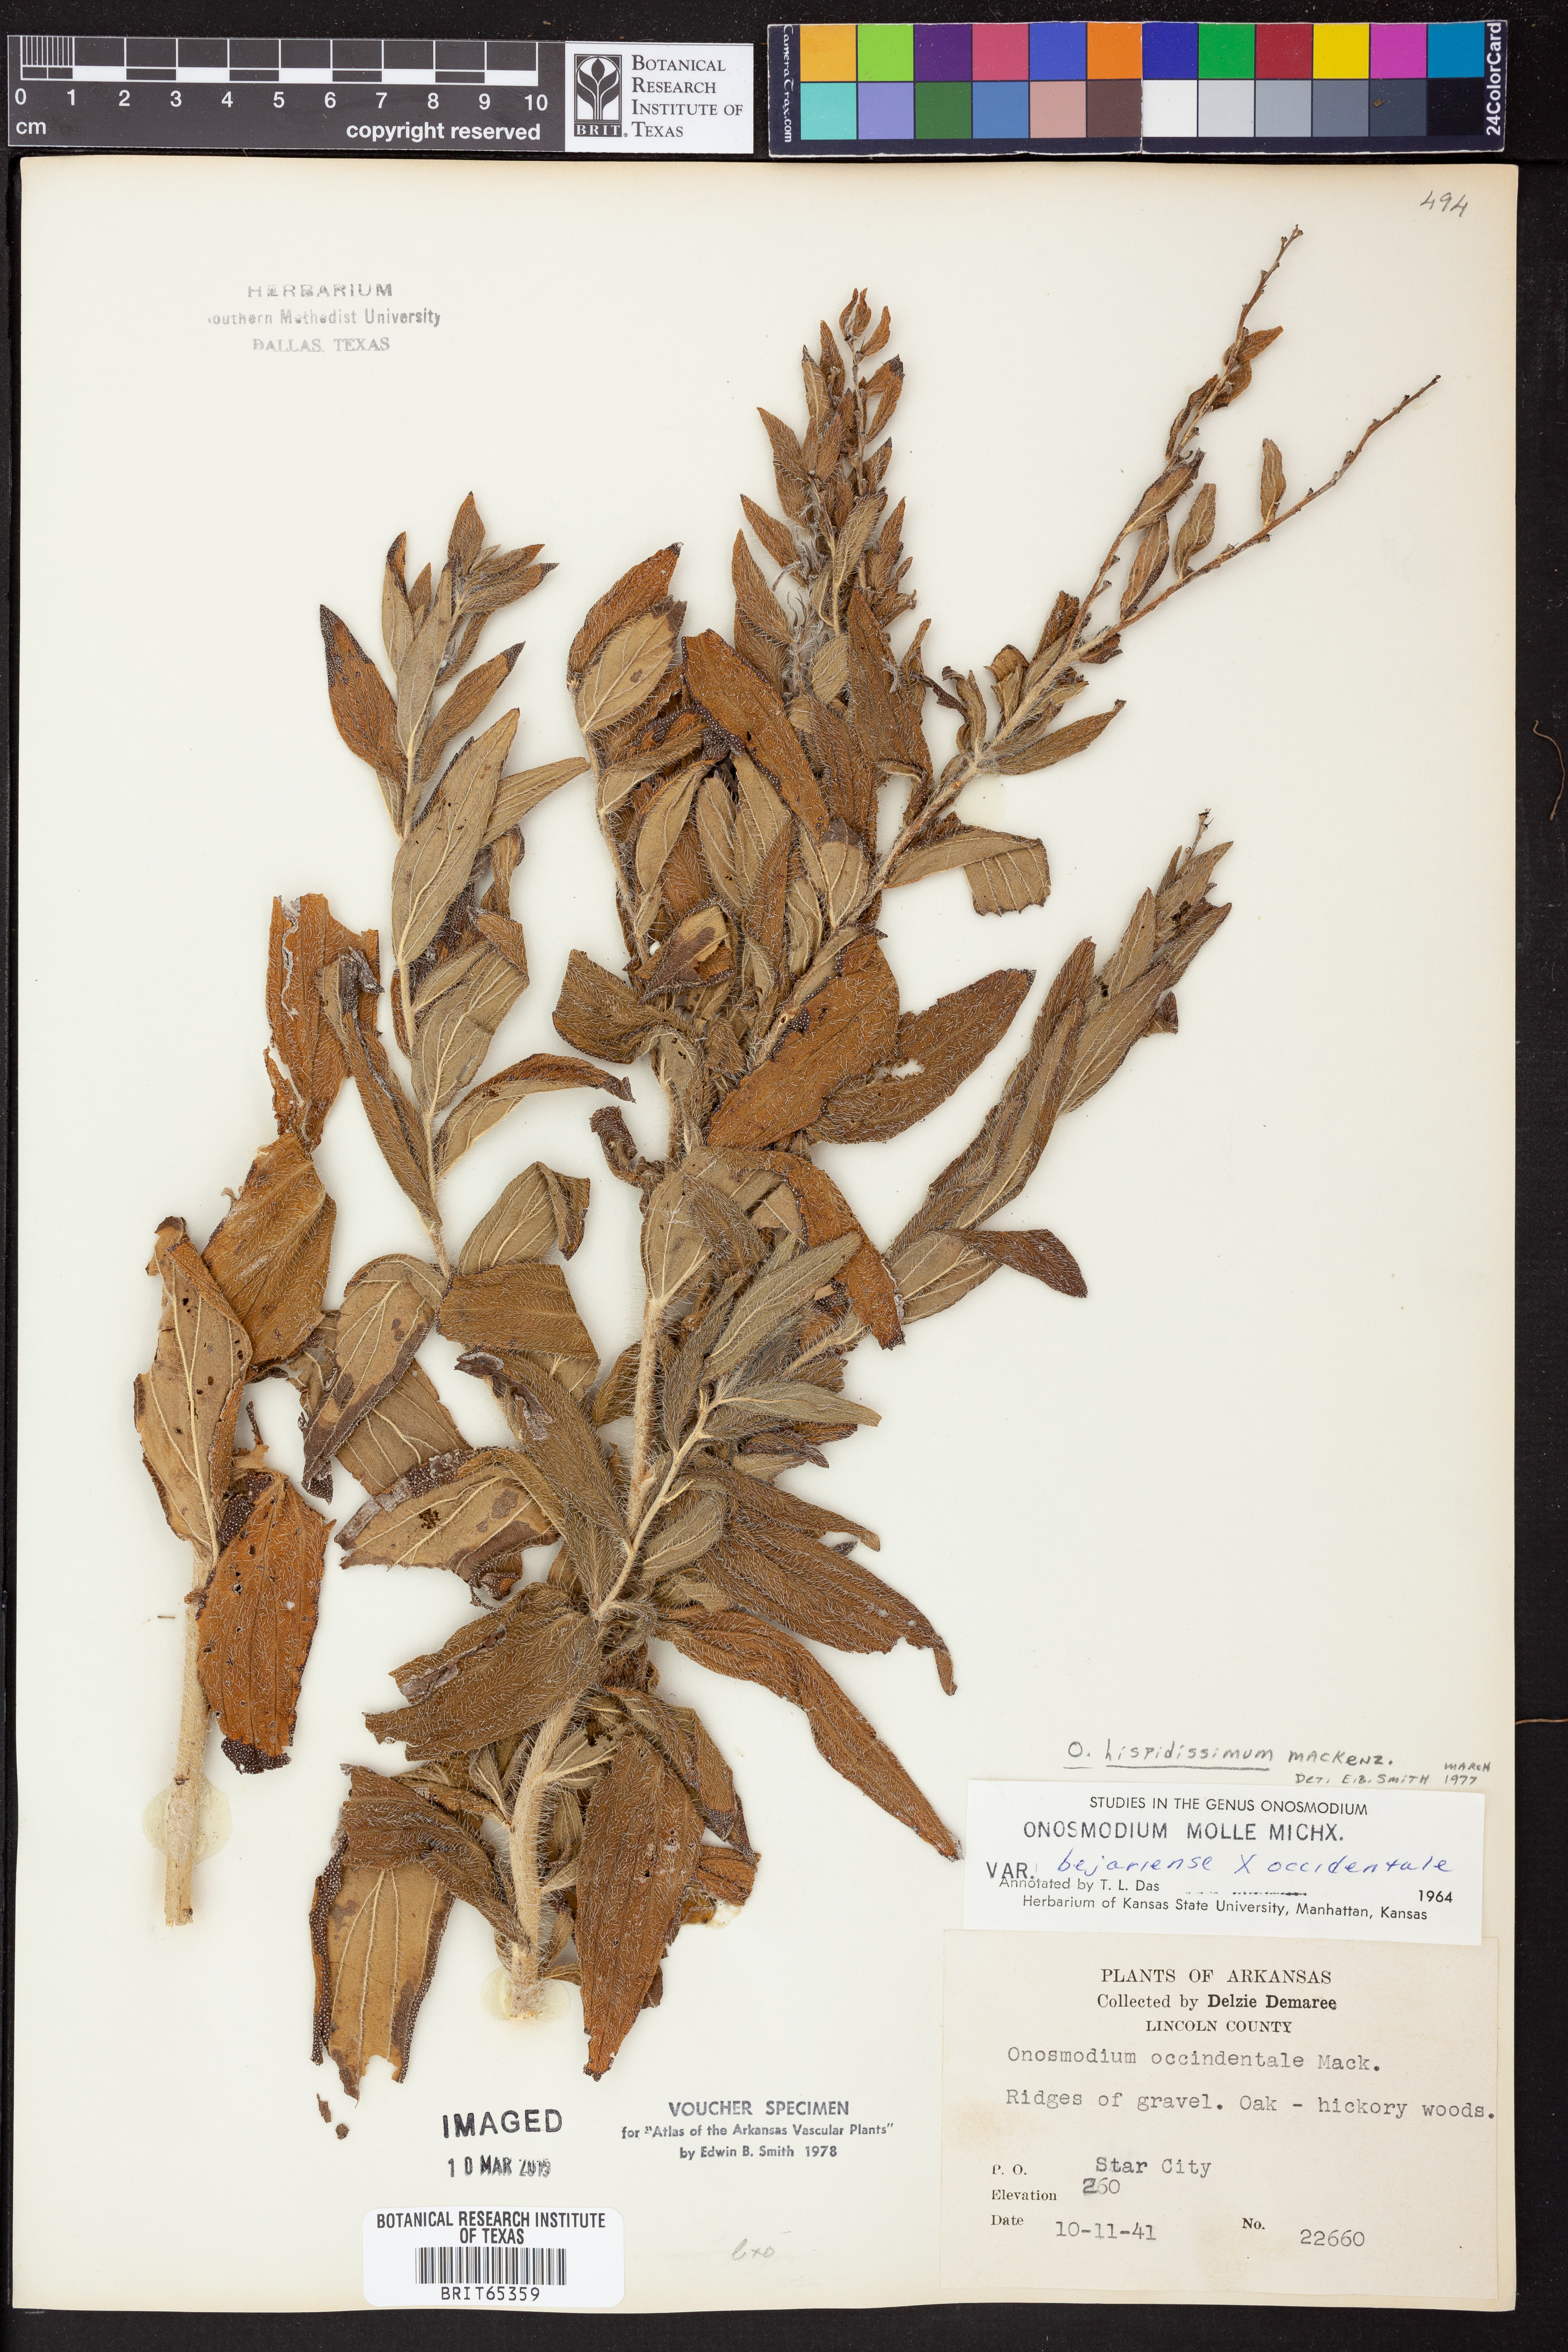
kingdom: Plantae
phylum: Tracheophyta
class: Magnoliopsida
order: Boraginales
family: Boraginaceae
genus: Lithospermum
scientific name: Lithospermum parviflorum
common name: Hairy false gromwell
